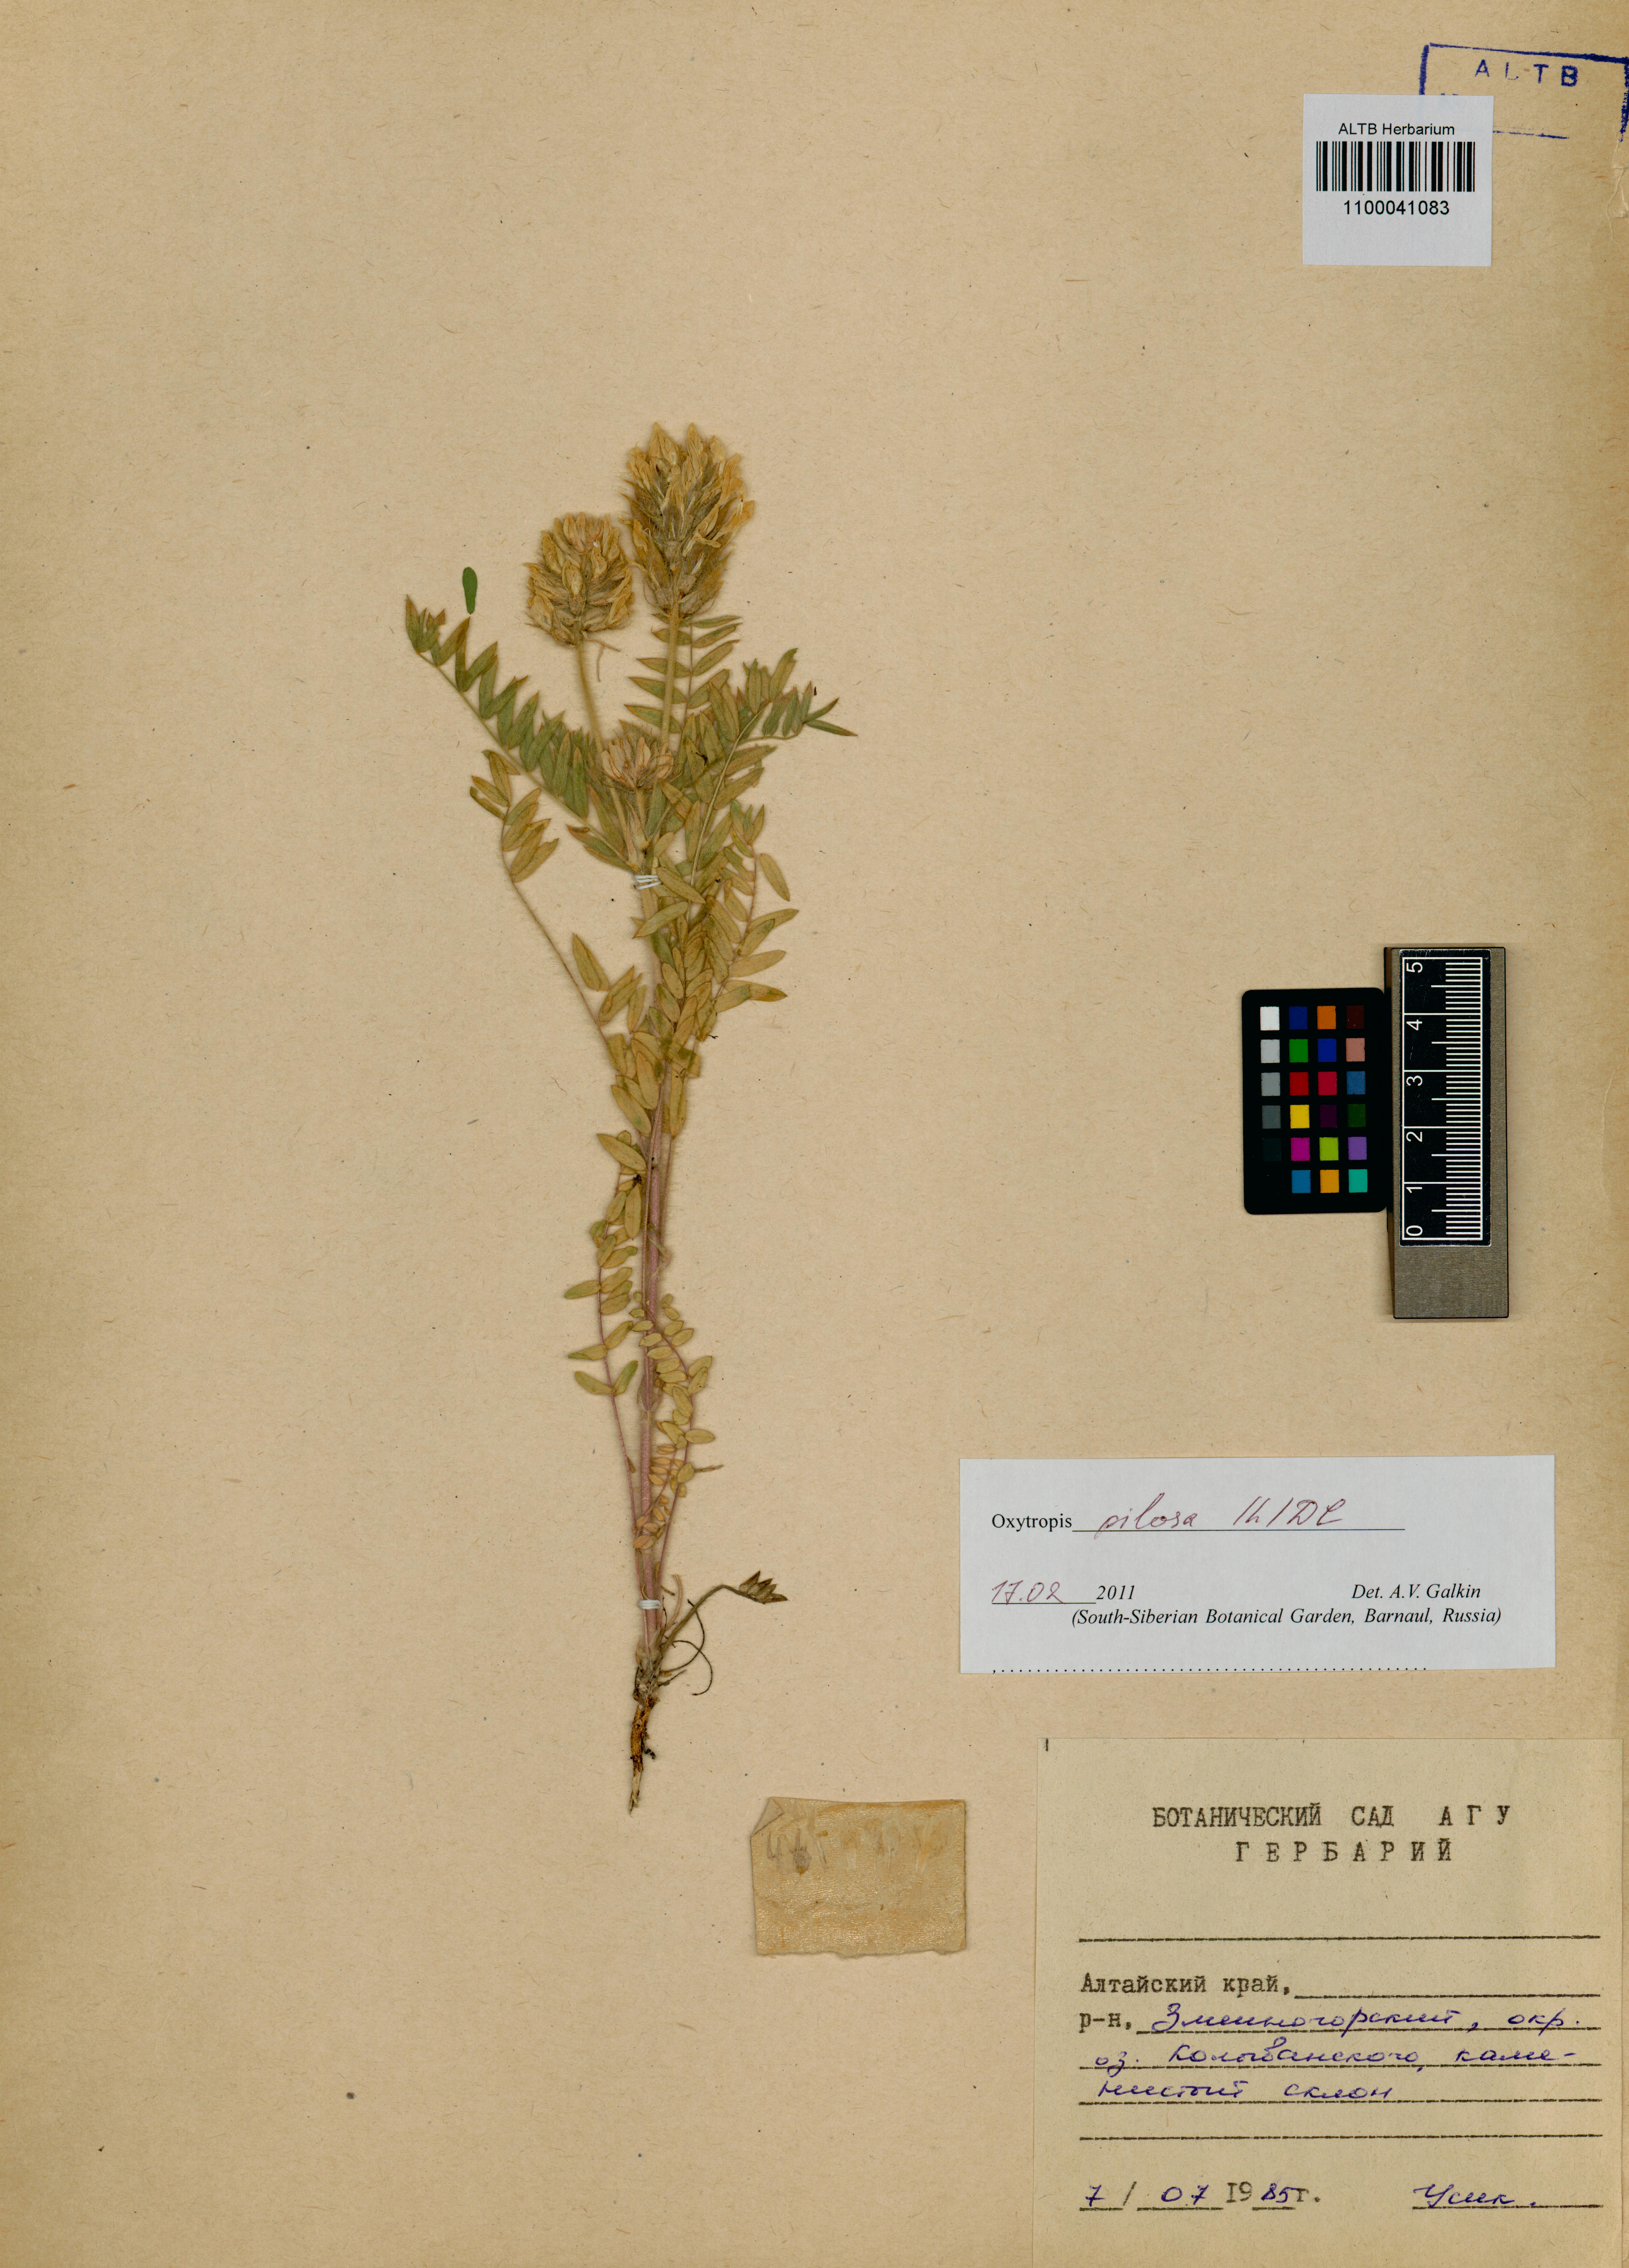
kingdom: Plantae
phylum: Tracheophyta
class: Magnoliopsida
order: Fabales
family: Fabaceae
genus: Oxytropis
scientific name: Oxytropis pilosa
